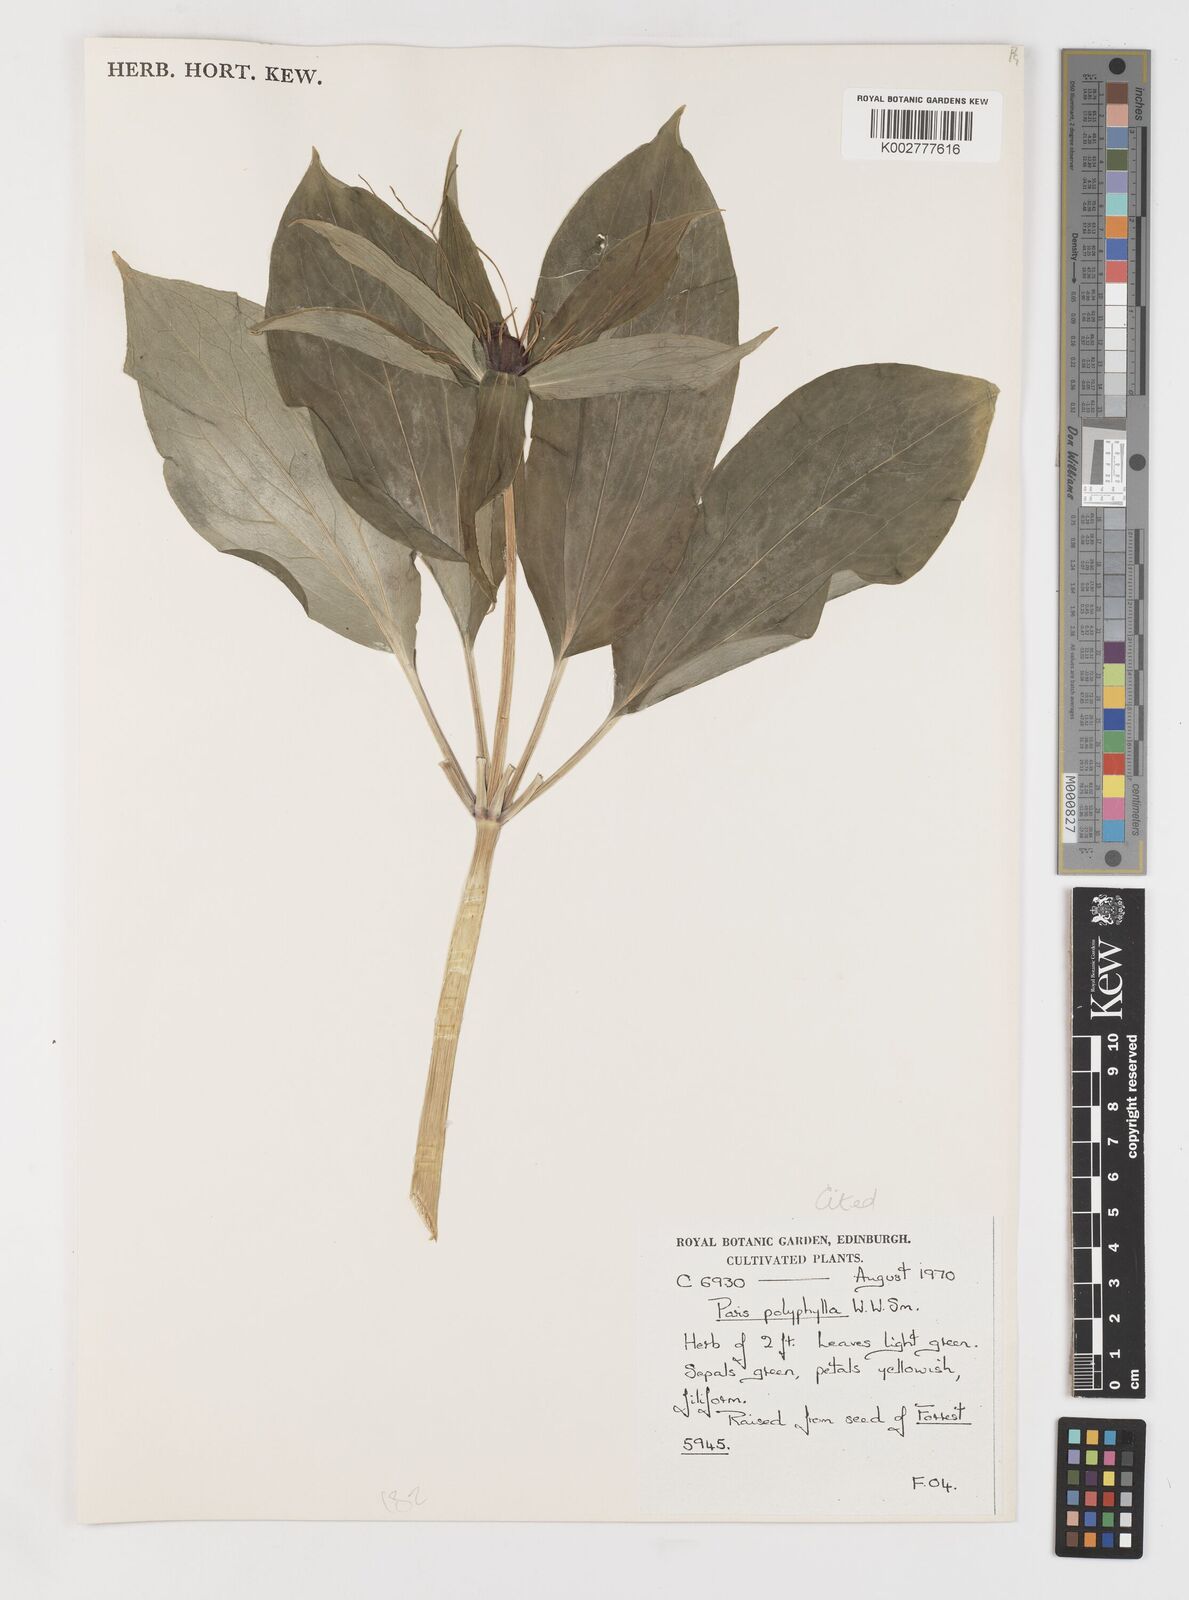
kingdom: Plantae
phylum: Tracheophyta
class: Liliopsida
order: Liliales
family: Melanthiaceae
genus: Paris
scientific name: Paris chinensis
